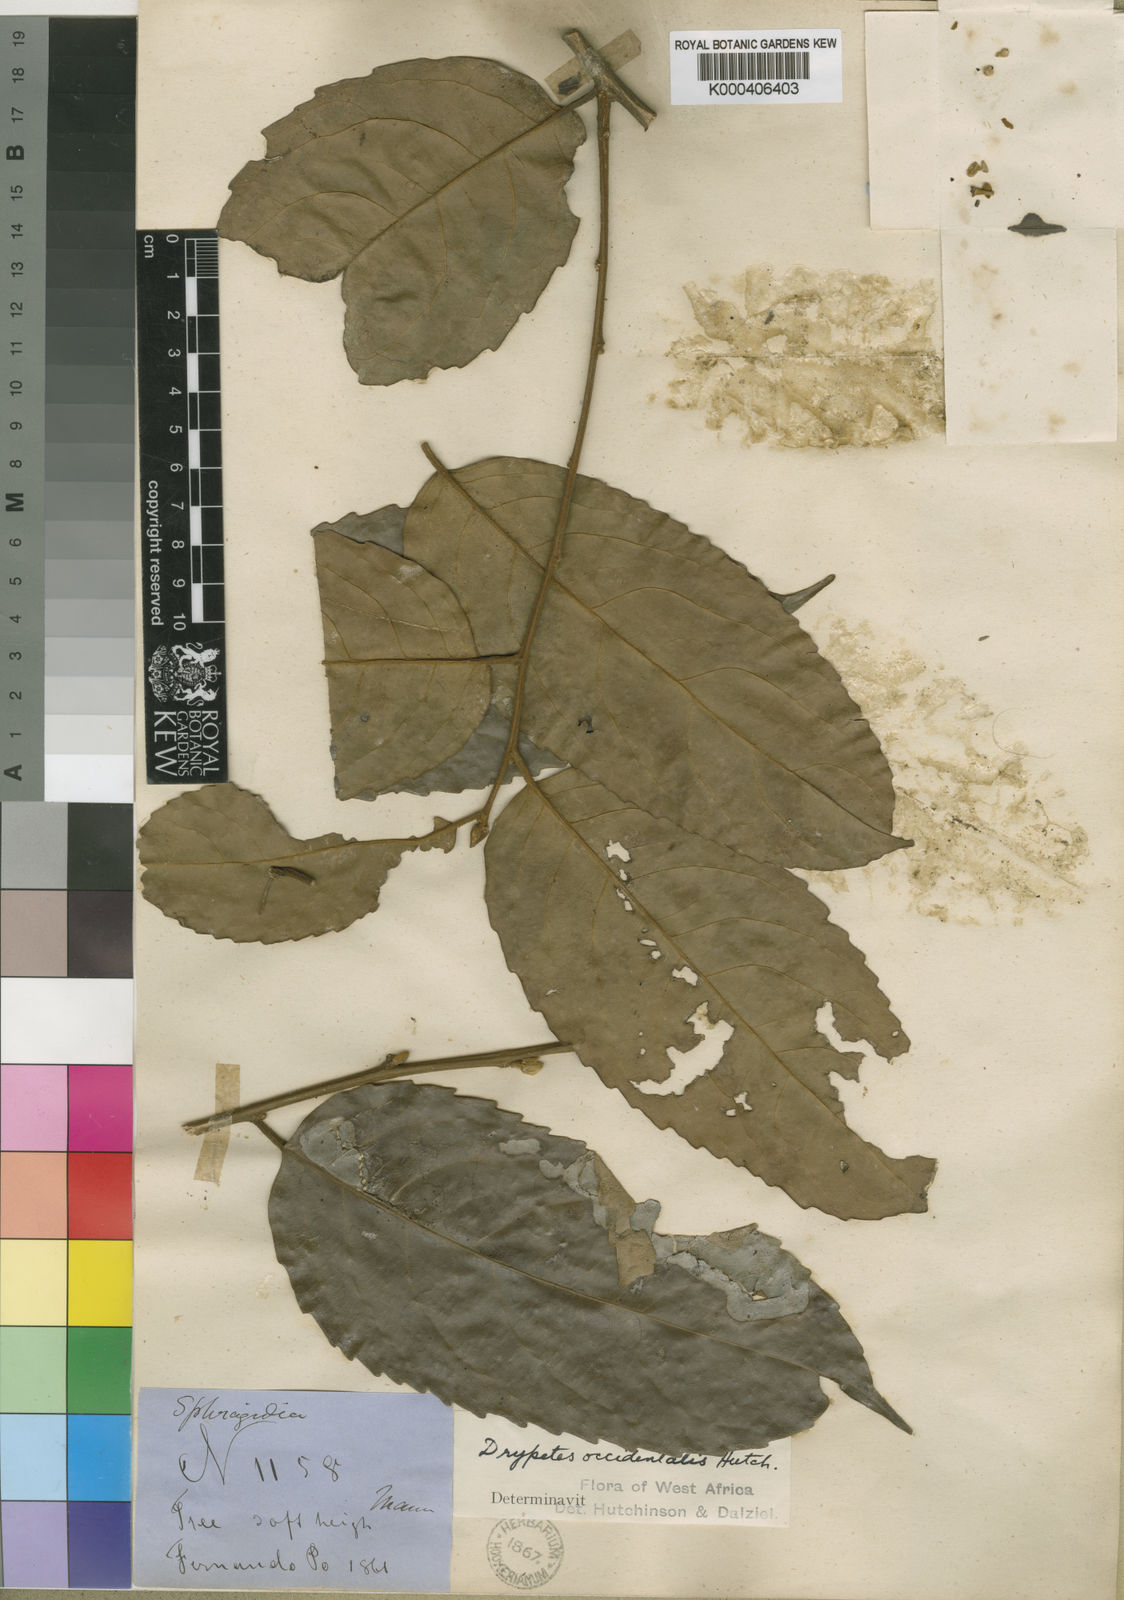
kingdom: Plantae
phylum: Tracheophyta
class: Magnoliopsida
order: Malpighiales
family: Putranjivaceae
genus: Drypetes
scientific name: Drypetes
